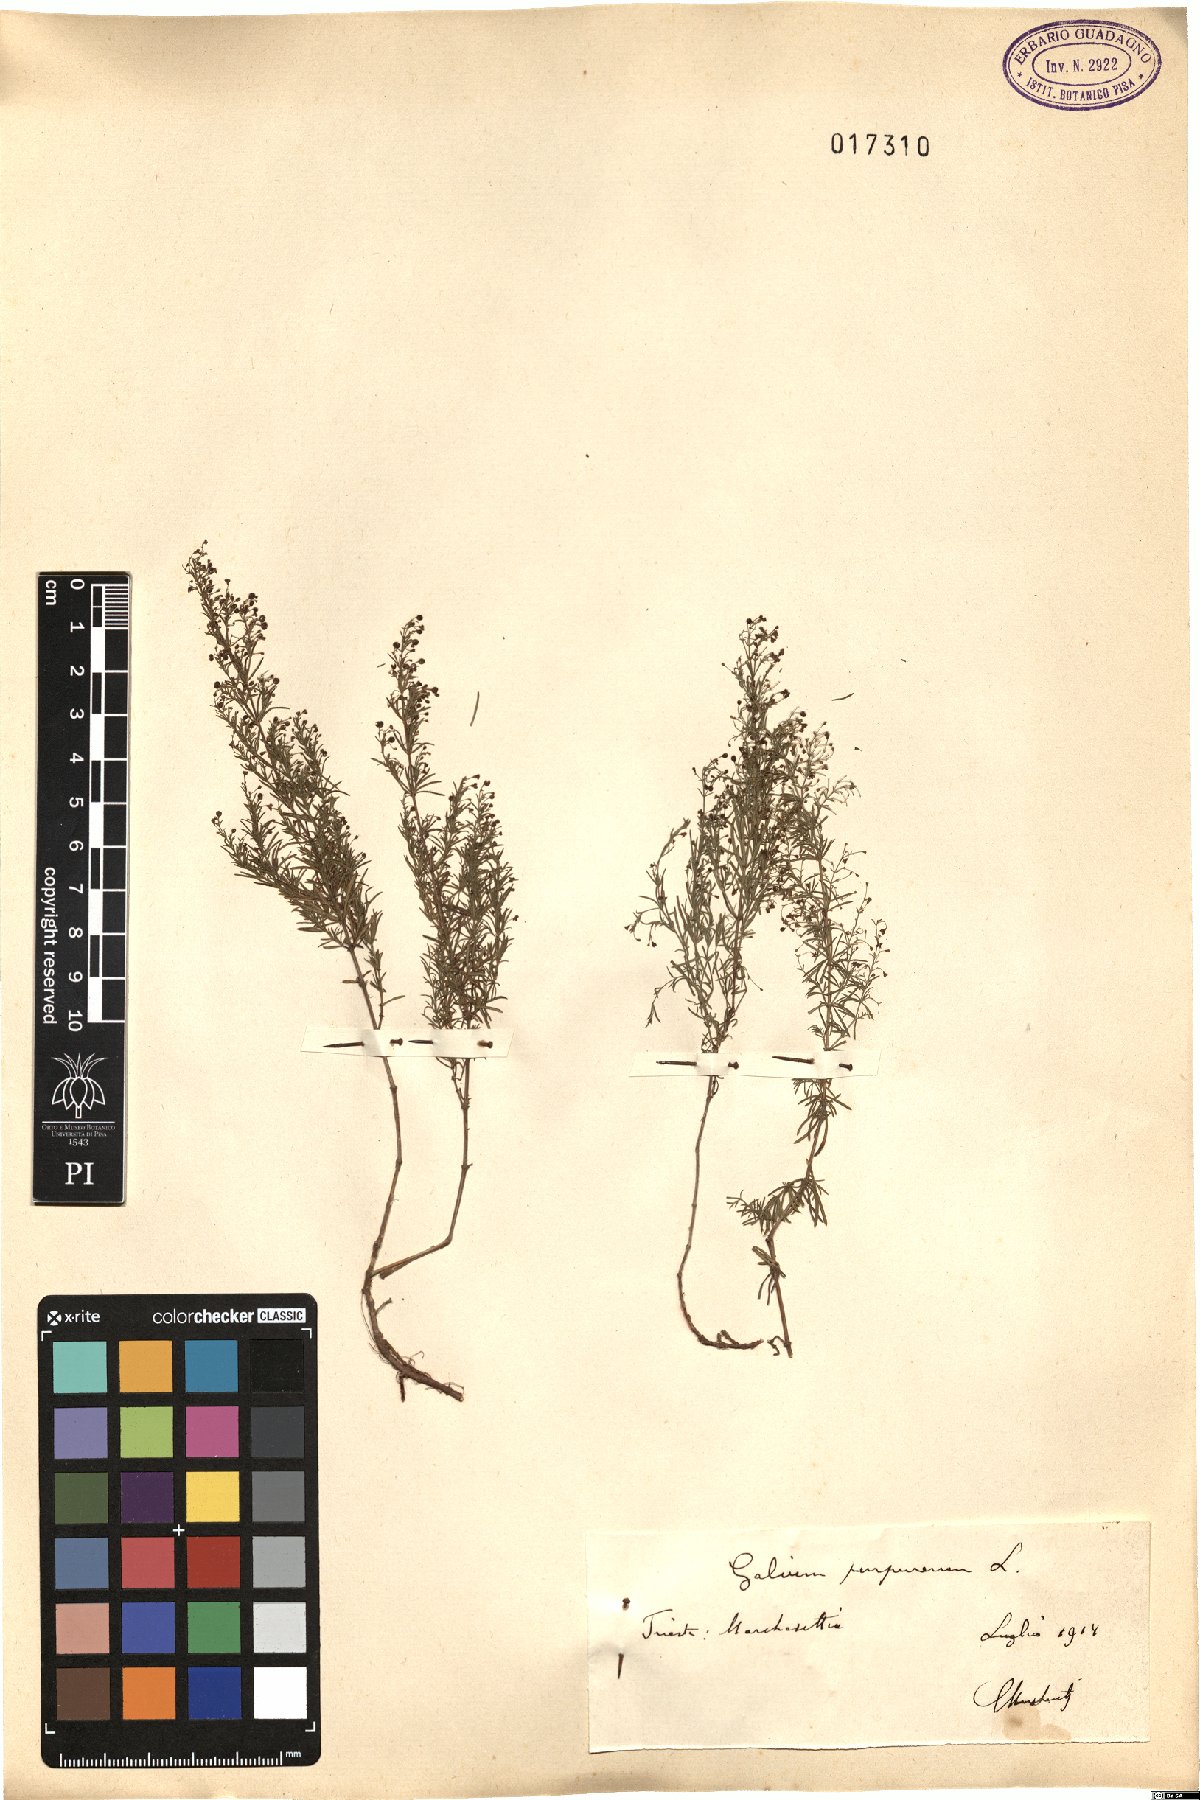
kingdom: Plantae
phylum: Tracheophyta
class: Magnoliopsida
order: Gentianales
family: Rubiaceae
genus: Thliphthisa
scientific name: Thliphthisa purpurea
